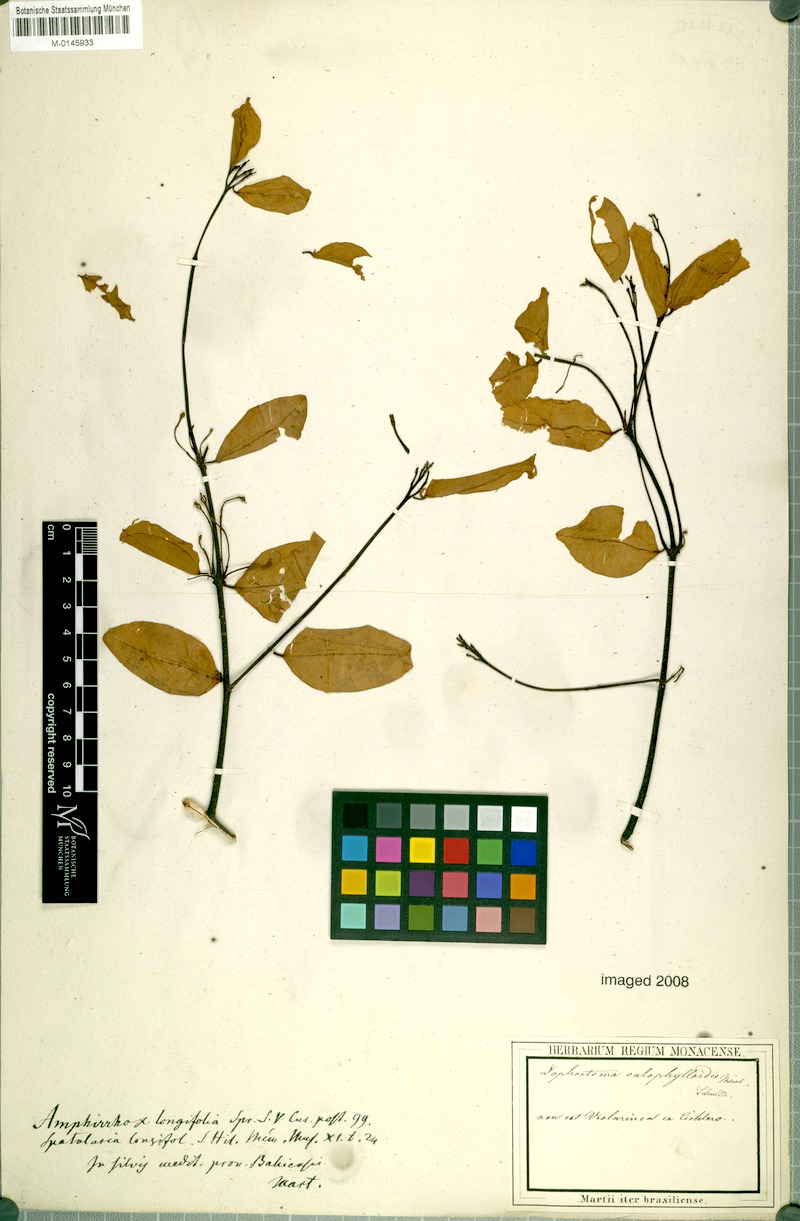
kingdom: Plantae
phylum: Tracheophyta
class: Magnoliopsida
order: Malvales
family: Thymelaeaceae
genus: Lophostoma
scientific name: Lophostoma calophylloides
